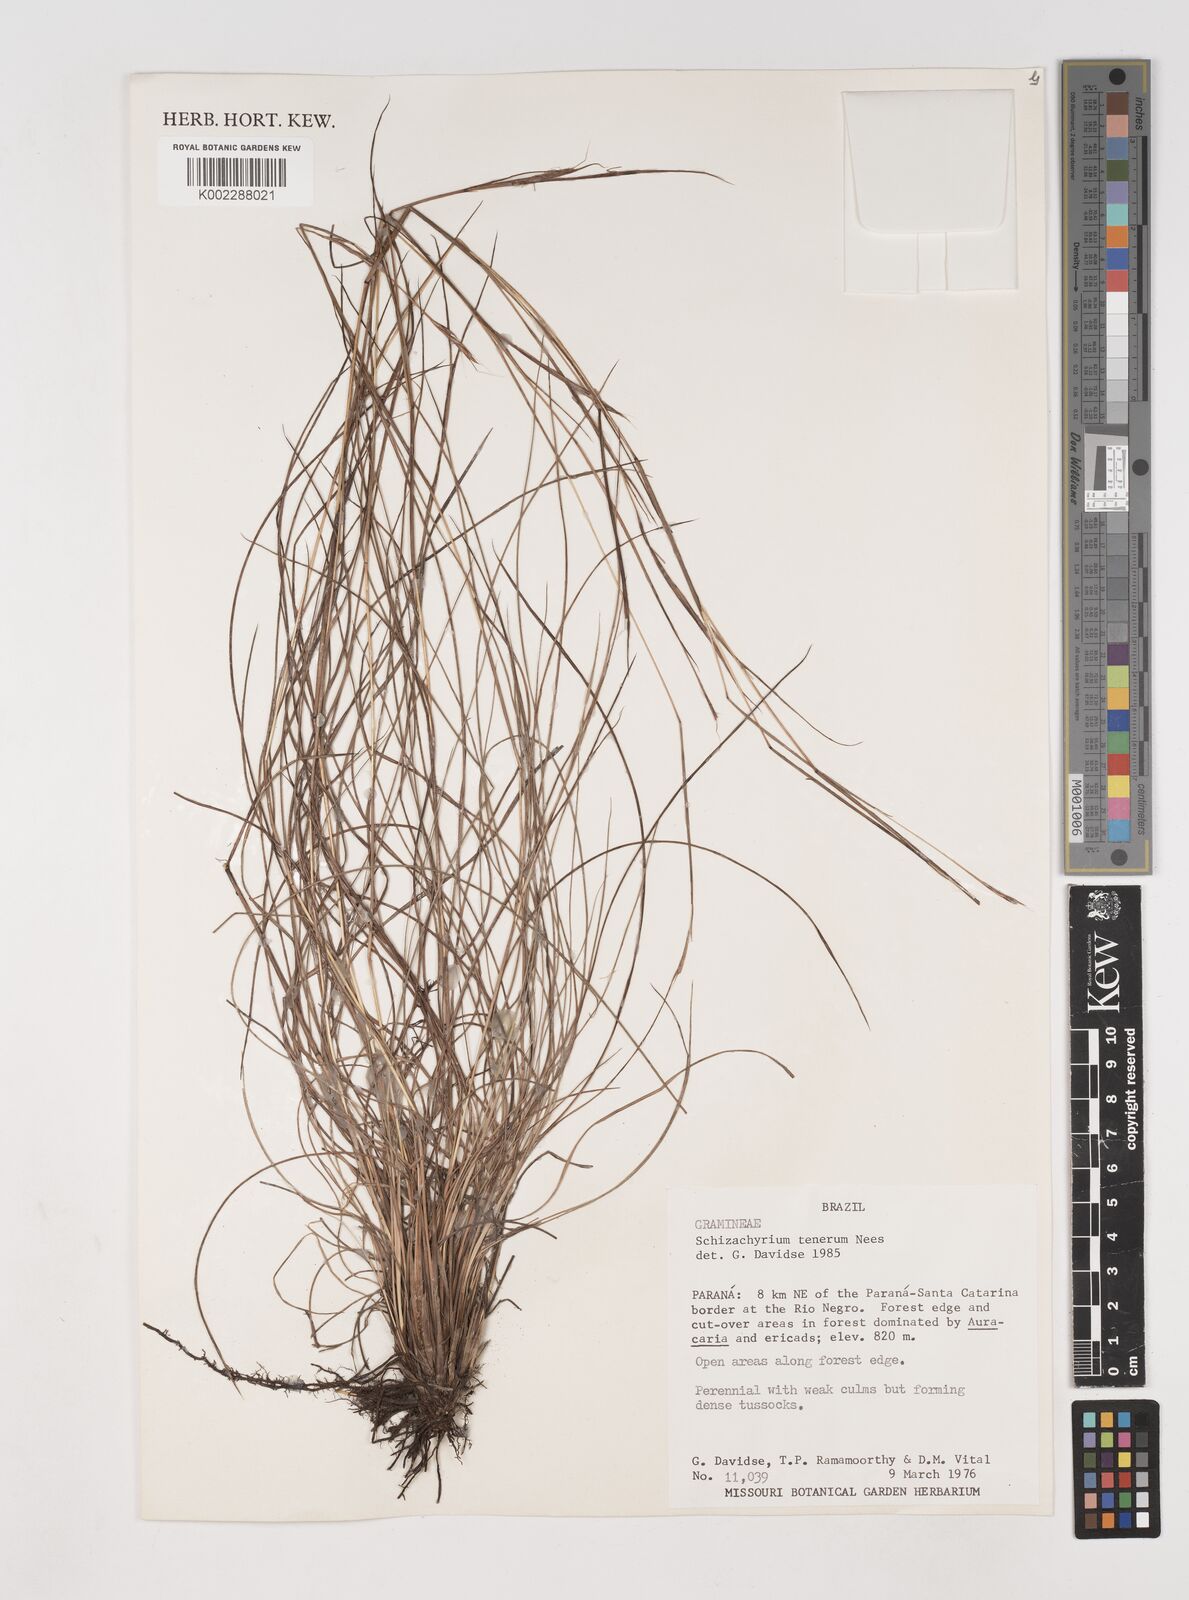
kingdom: Plantae
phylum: Tracheophyta
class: Liliopsida
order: Poales
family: Poaceae
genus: Andropogon
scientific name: Andropogon tener
